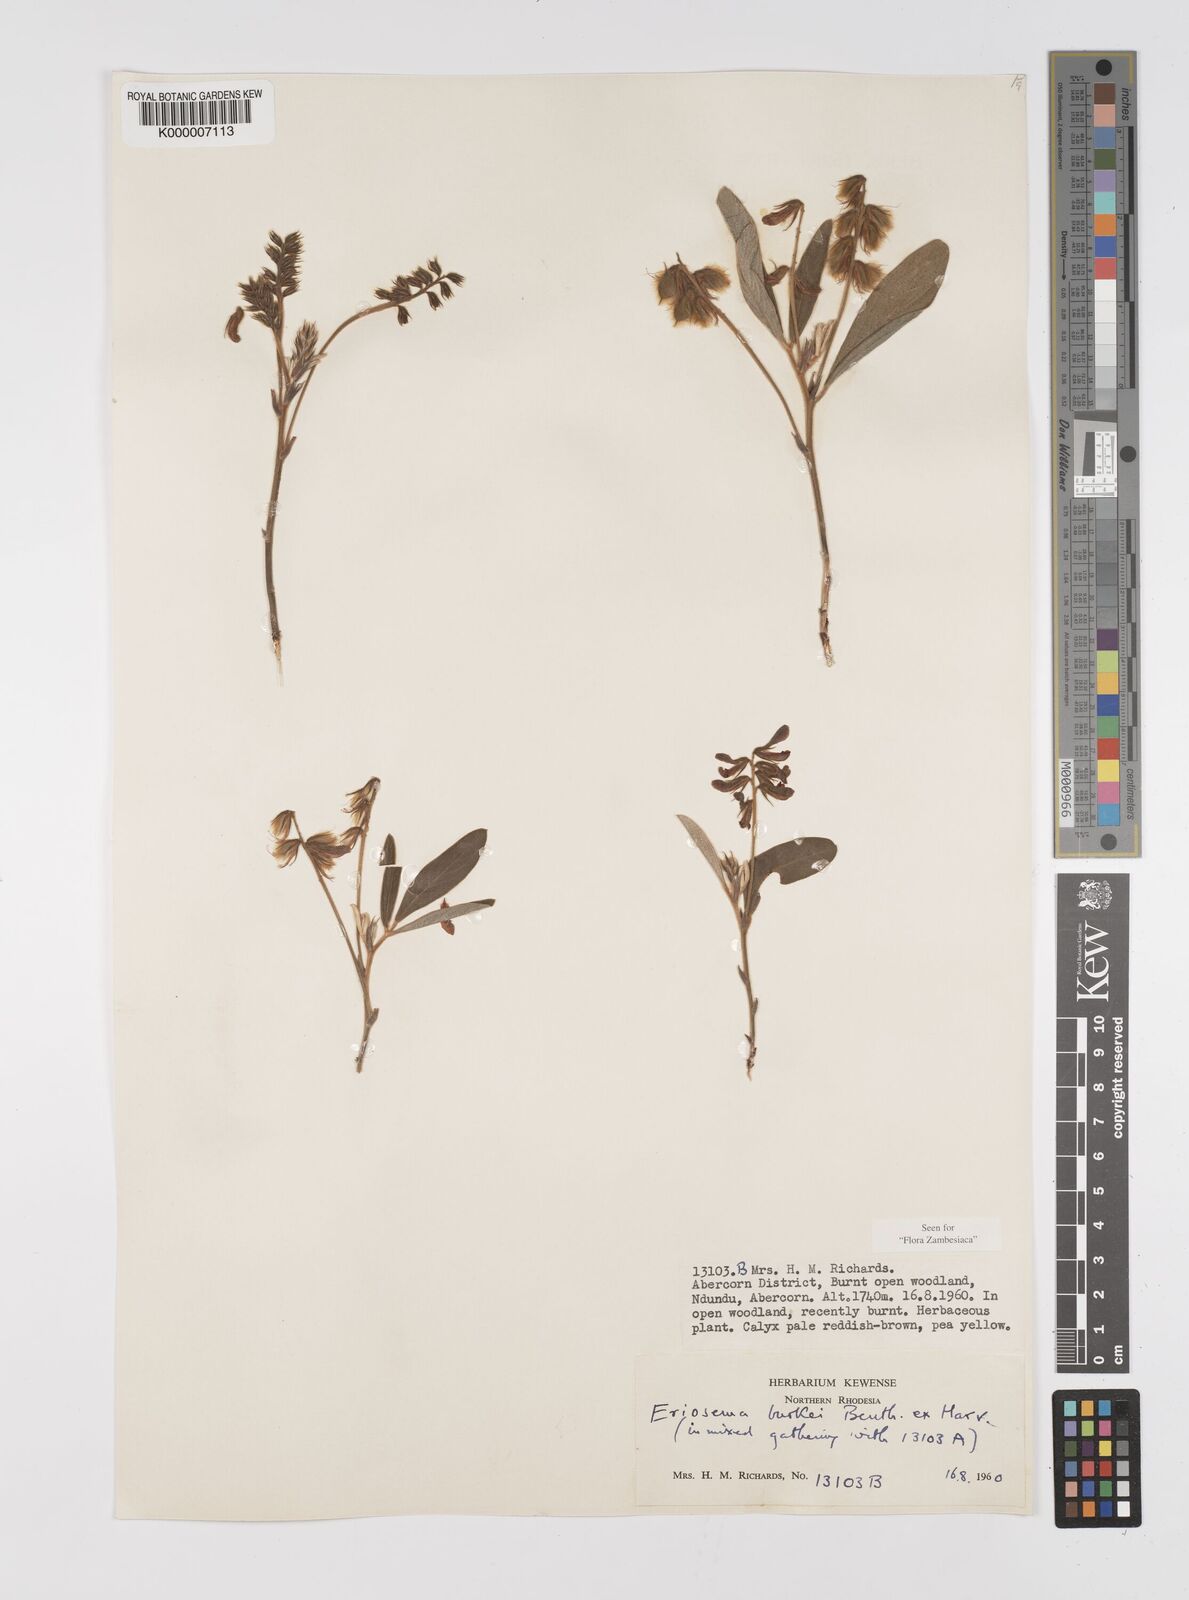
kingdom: Plantae
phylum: Tracheophyta
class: Magnoliopsida
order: Fabales
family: Fabaceae
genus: Eriosema
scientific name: Eriosema burkei
